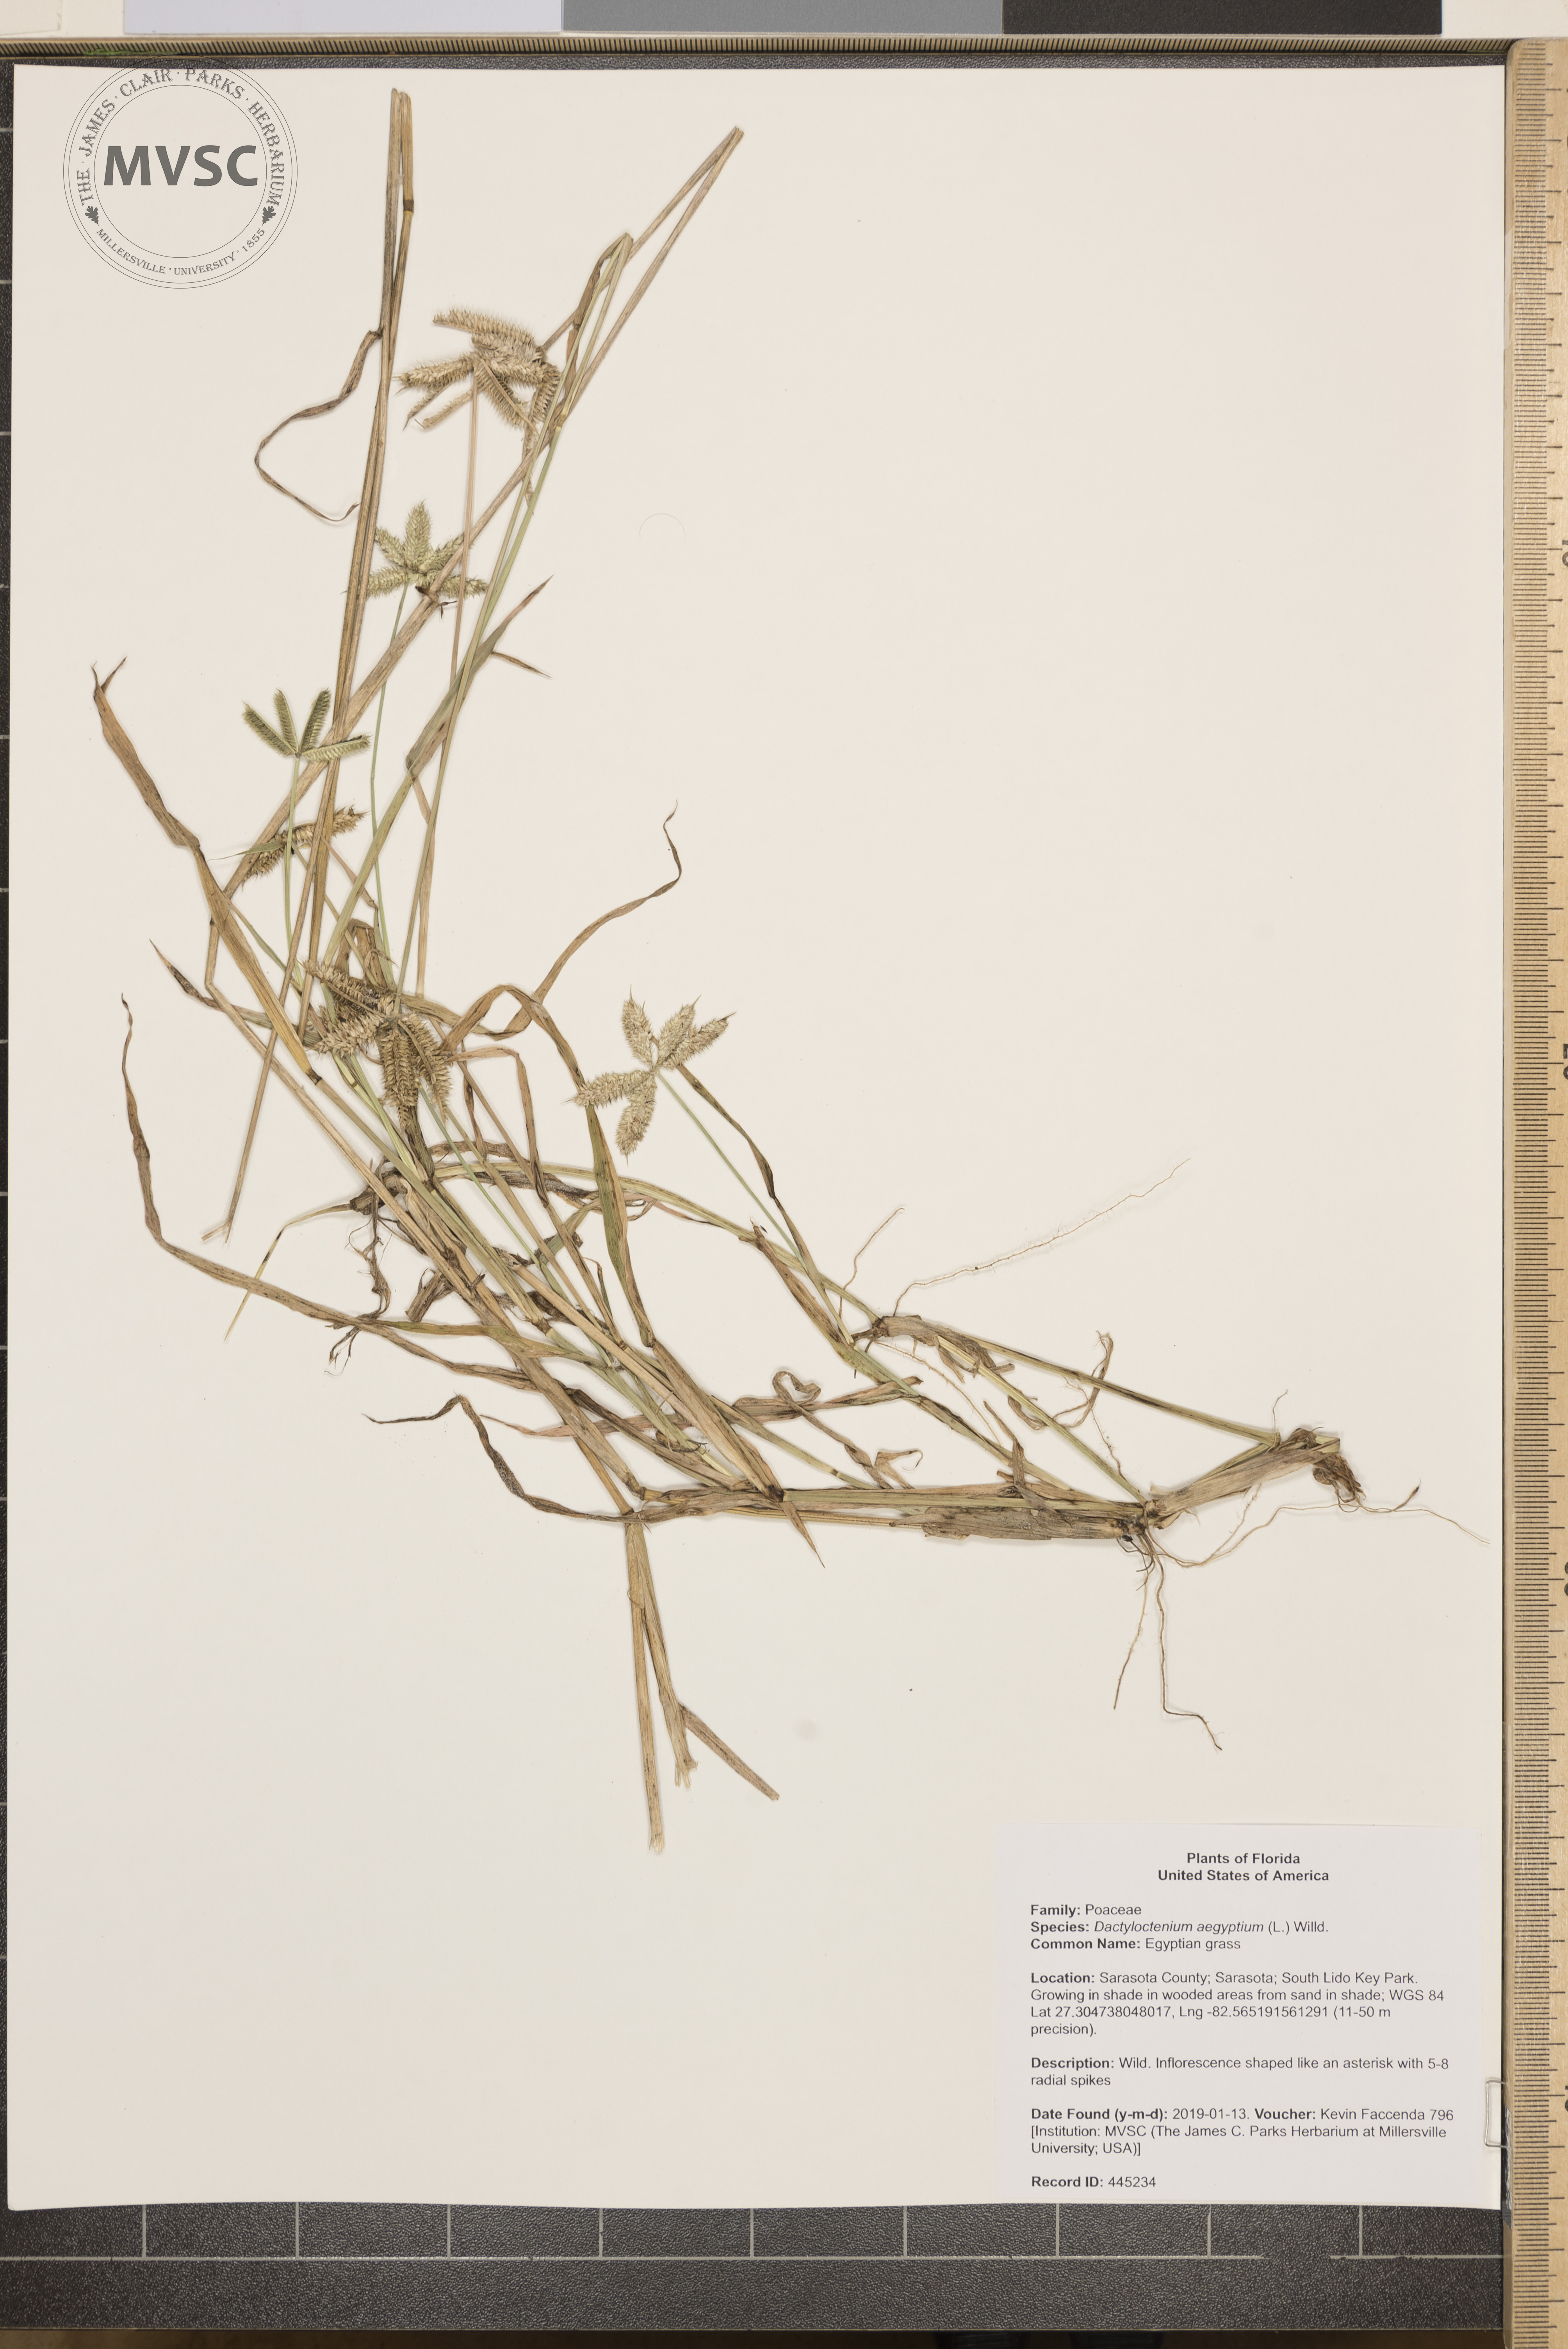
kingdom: Plantae
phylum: Tracheophyta
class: Liliopsida
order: Poales
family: Poaceae
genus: Dactyloctenium
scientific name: Dactyloctenium aegyptium
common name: Egyptian grass
